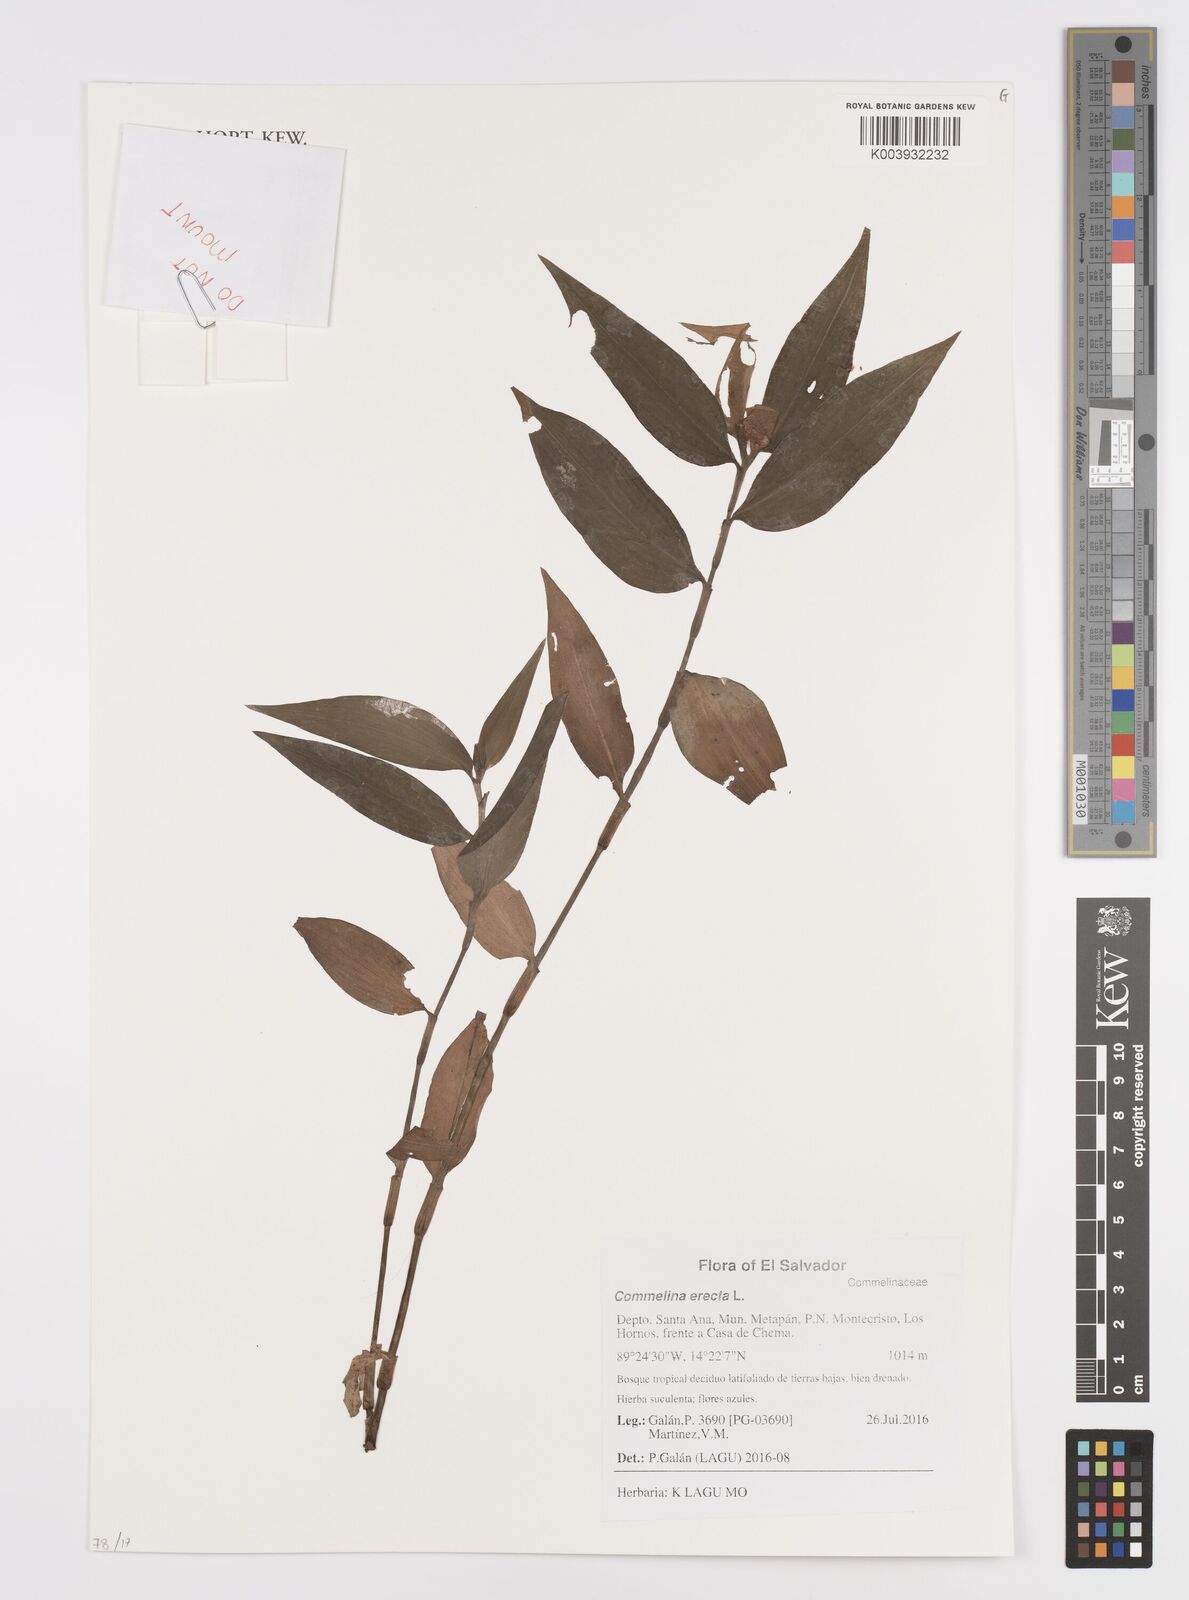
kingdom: Plantae
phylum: Tracheophyta
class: Liliopsida
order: Commelinales
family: Commelinaceae
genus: Commelina
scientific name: Commelina erecta
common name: Blousel blommetjie
